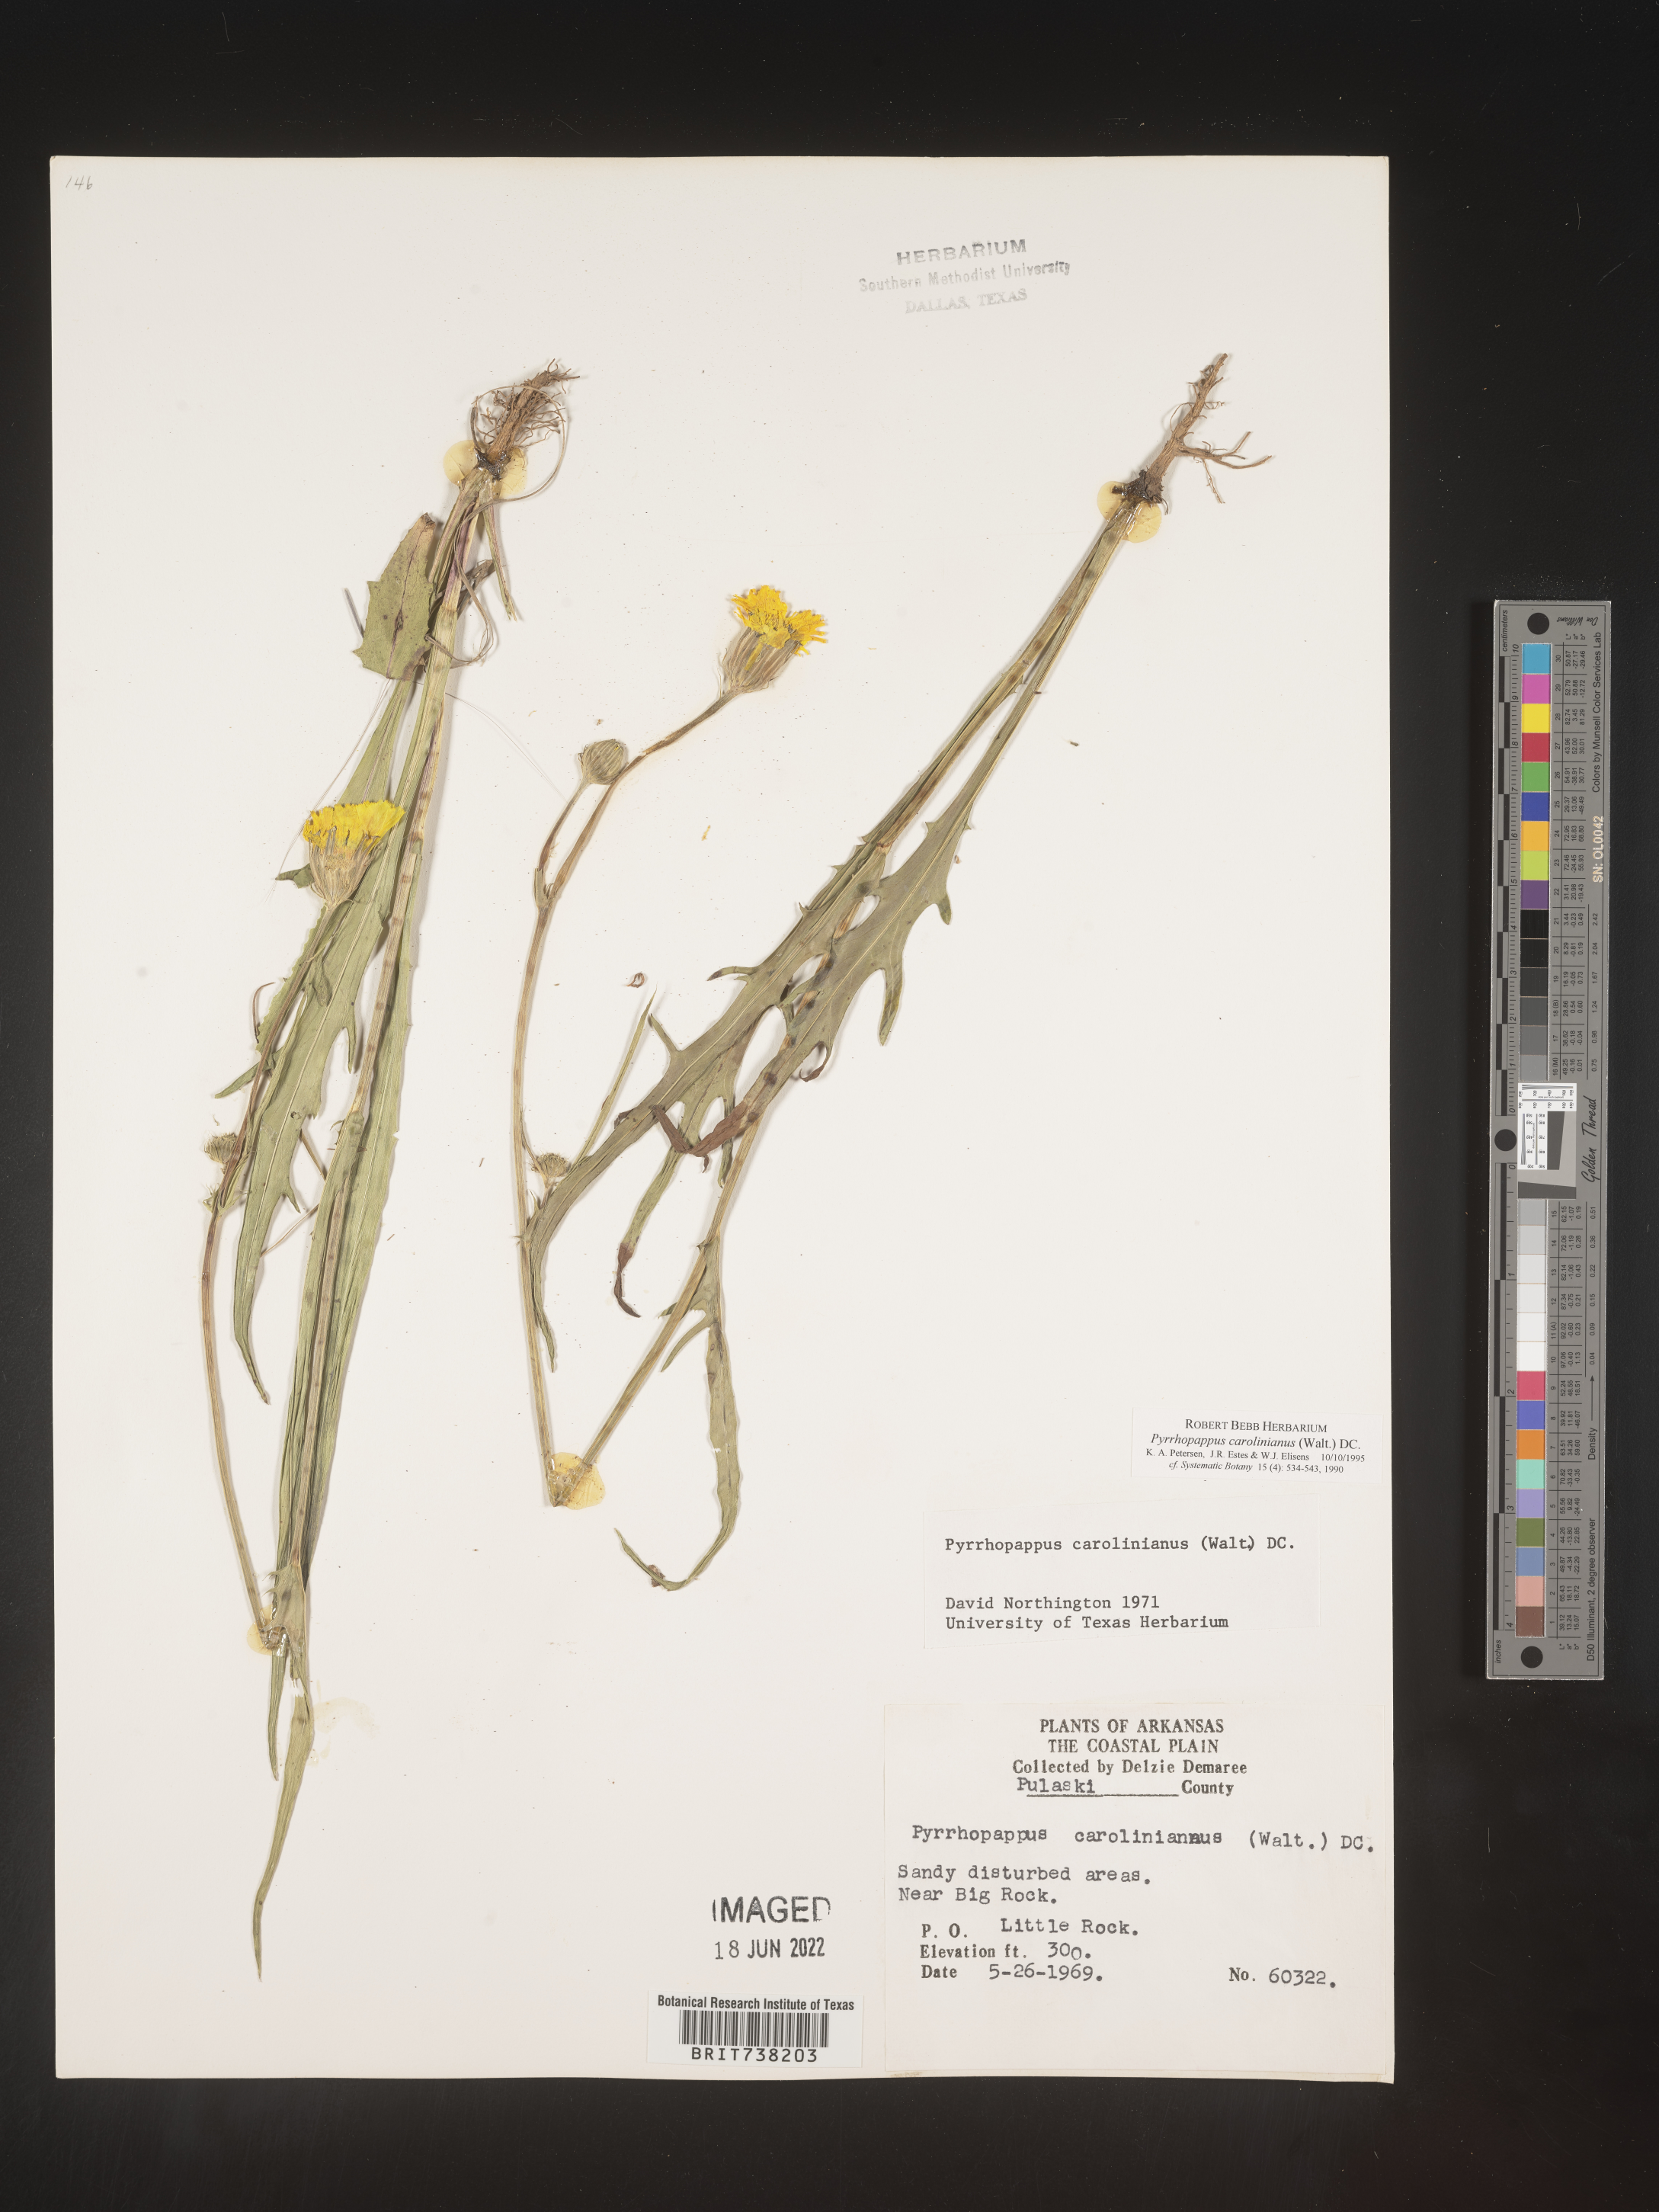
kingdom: Plantae
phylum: Tracheophyta
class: Magnoliopsida
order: Asterales
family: Asteraceae
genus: Pyrrhopappus
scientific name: Pyrrhopappus carolinianus
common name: Carolina desert-chicory
